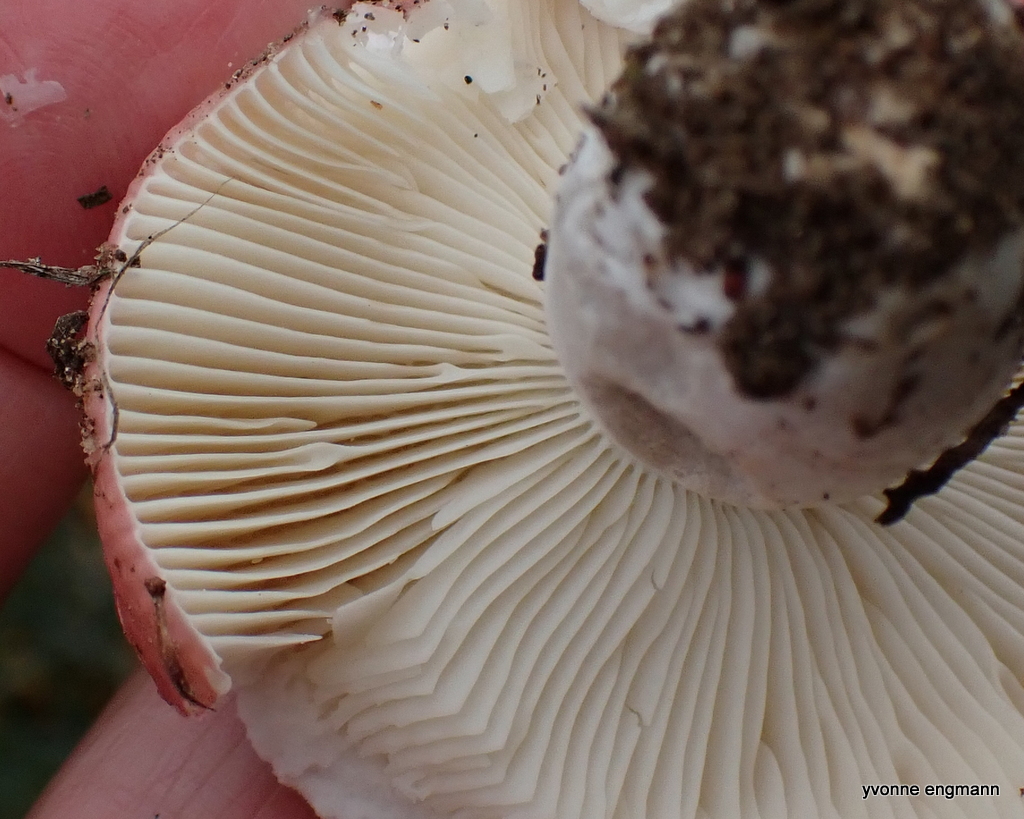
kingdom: Fungi
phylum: Basidiomycota
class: Agaricomycetes
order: Russulales
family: Russulaceae
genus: Russula
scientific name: Russula depallens
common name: falmende skørhat
